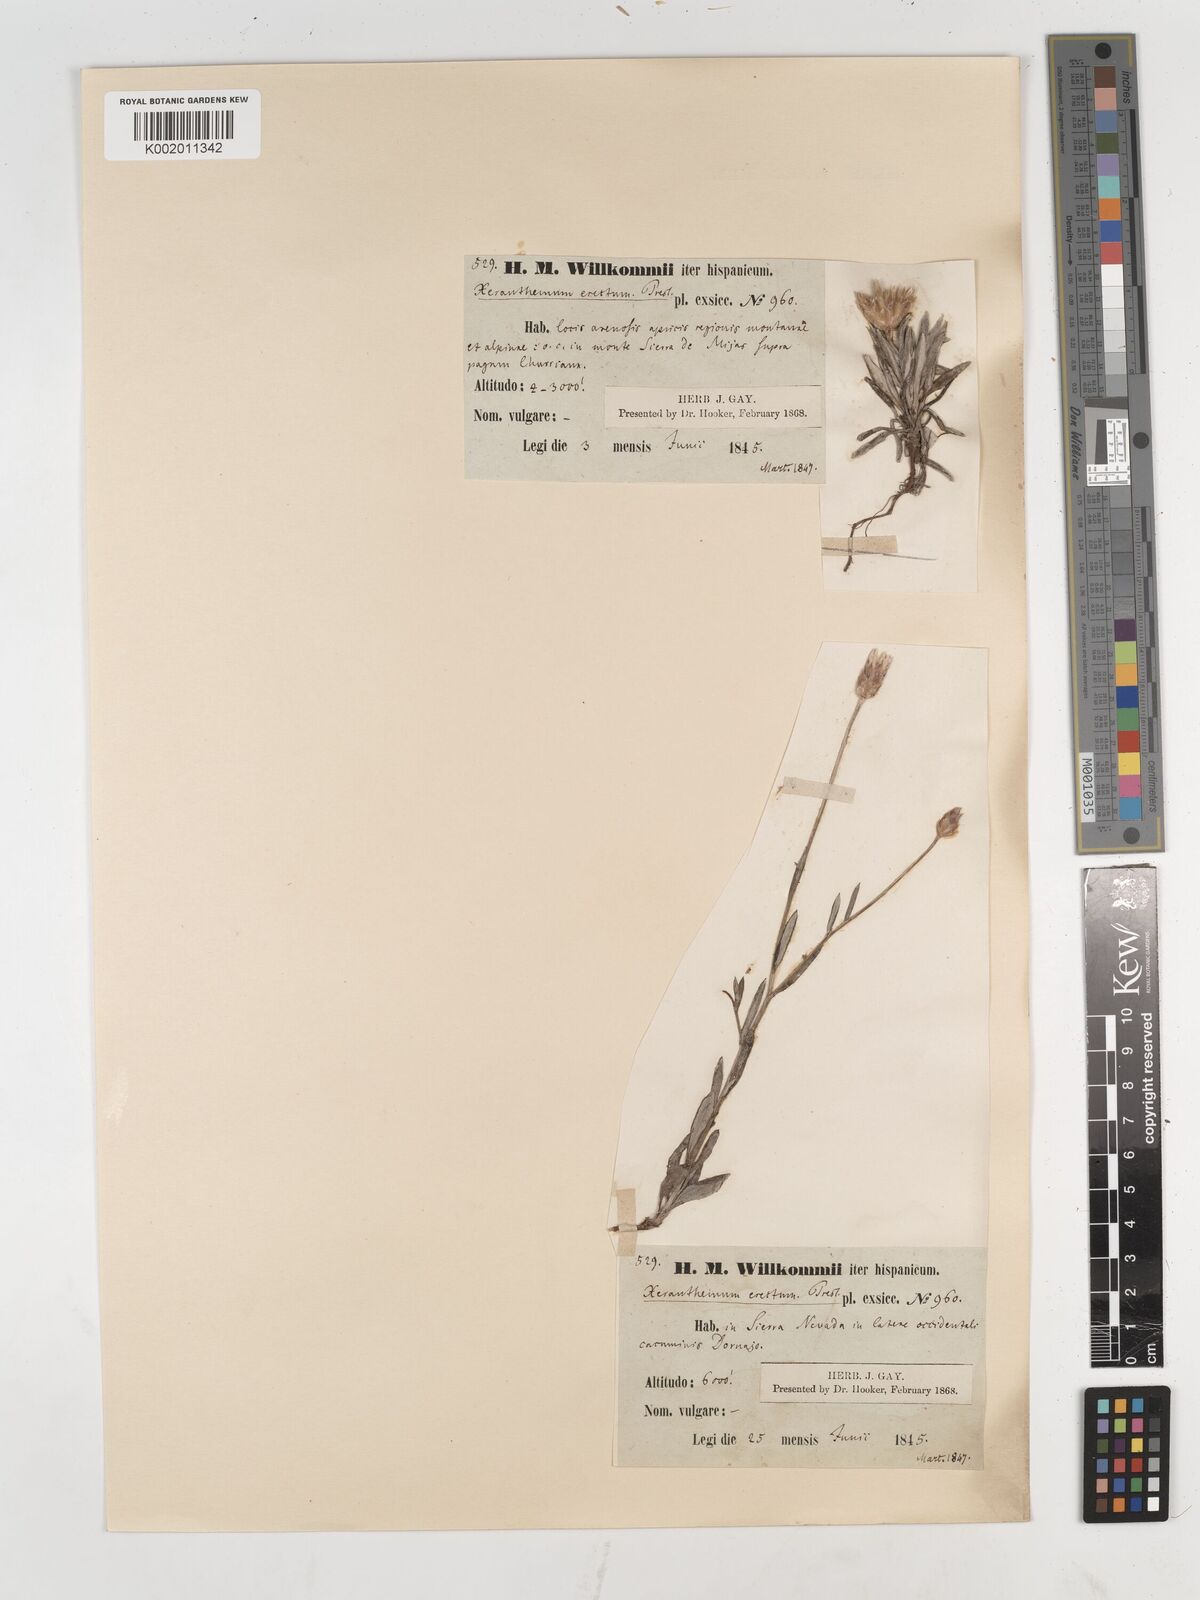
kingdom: Plantae
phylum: Tracheophyta
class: Magnoliopsida
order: Asterales
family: Asteraceae
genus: Xeranthemum
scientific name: Xeranthemum inapertum
